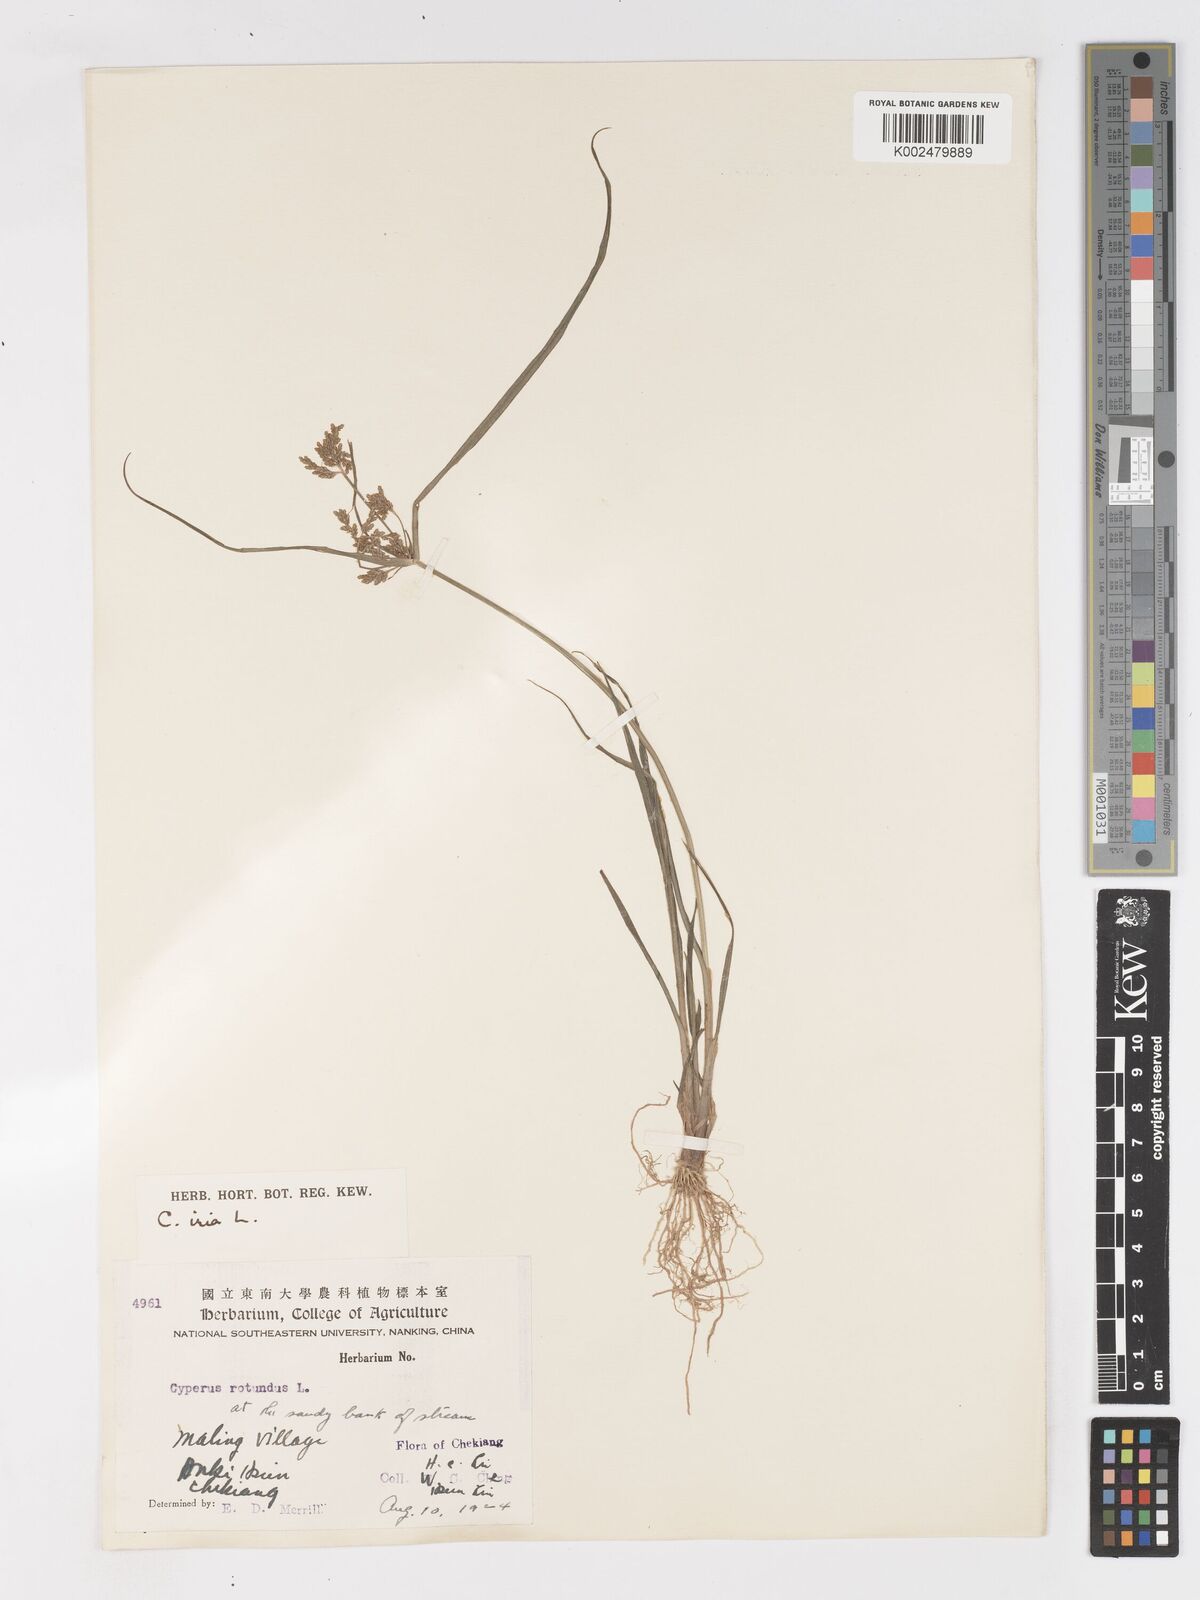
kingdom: Plantae
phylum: Tracheophyta
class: Liliopsida
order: Poales
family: Cyperaceae
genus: Cyperus
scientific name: Cyperus iria
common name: Ricefield flatsedge
